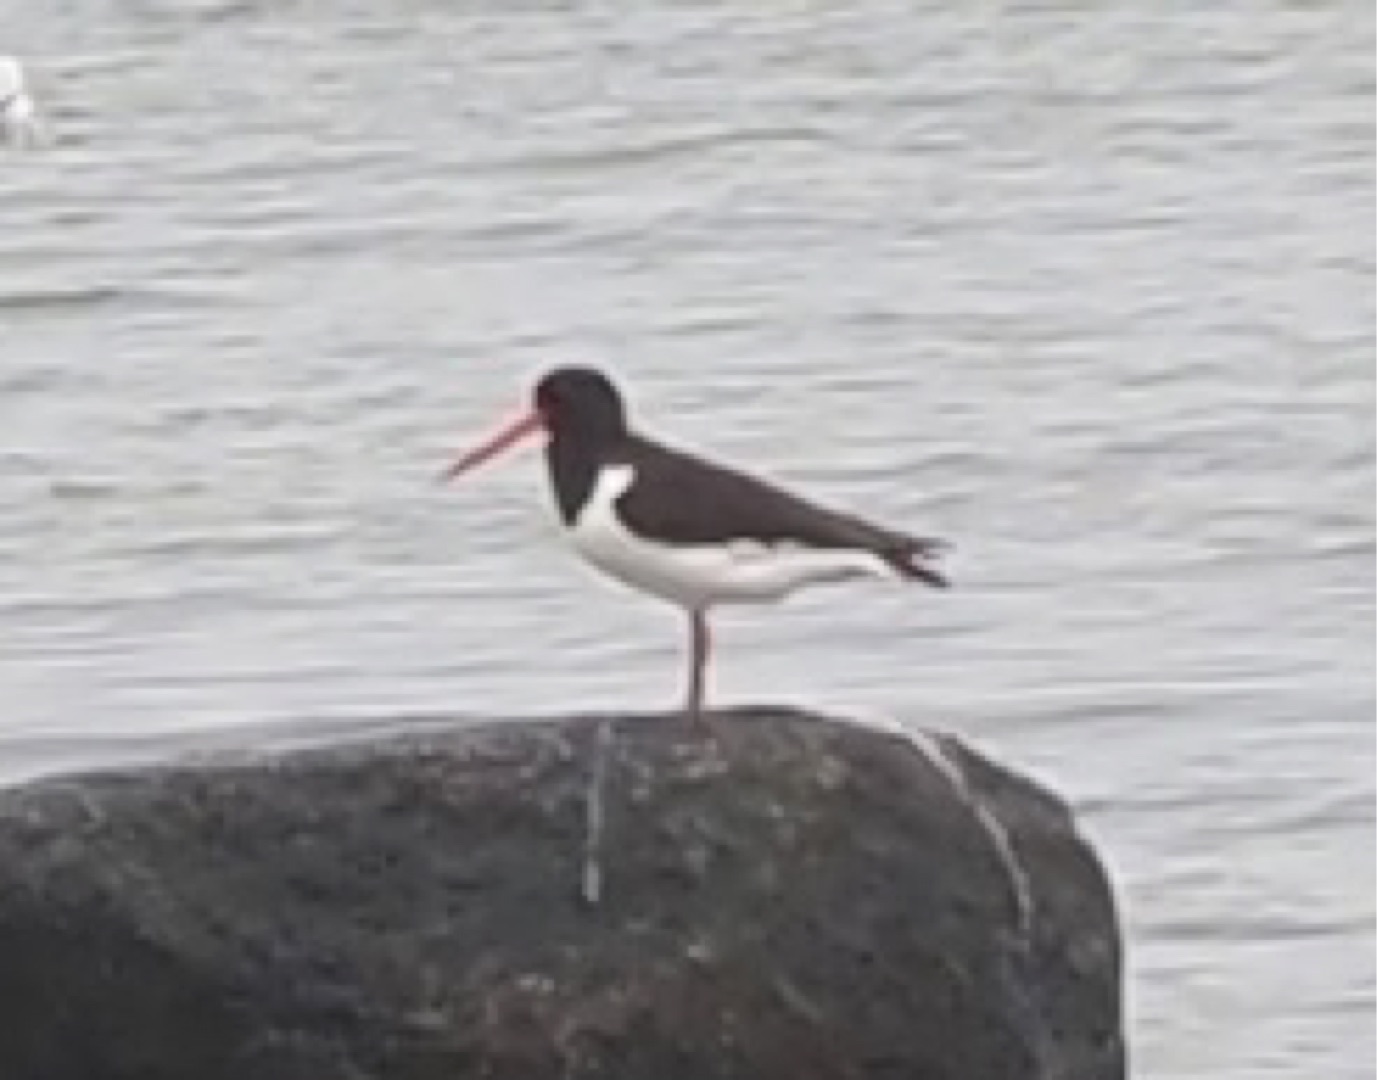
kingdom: Animalia
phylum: Chordata
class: Aves
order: Charadriiformes
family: Haematopodidae
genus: Haematopus
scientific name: Haematopus ostralegus
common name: Strandskade
